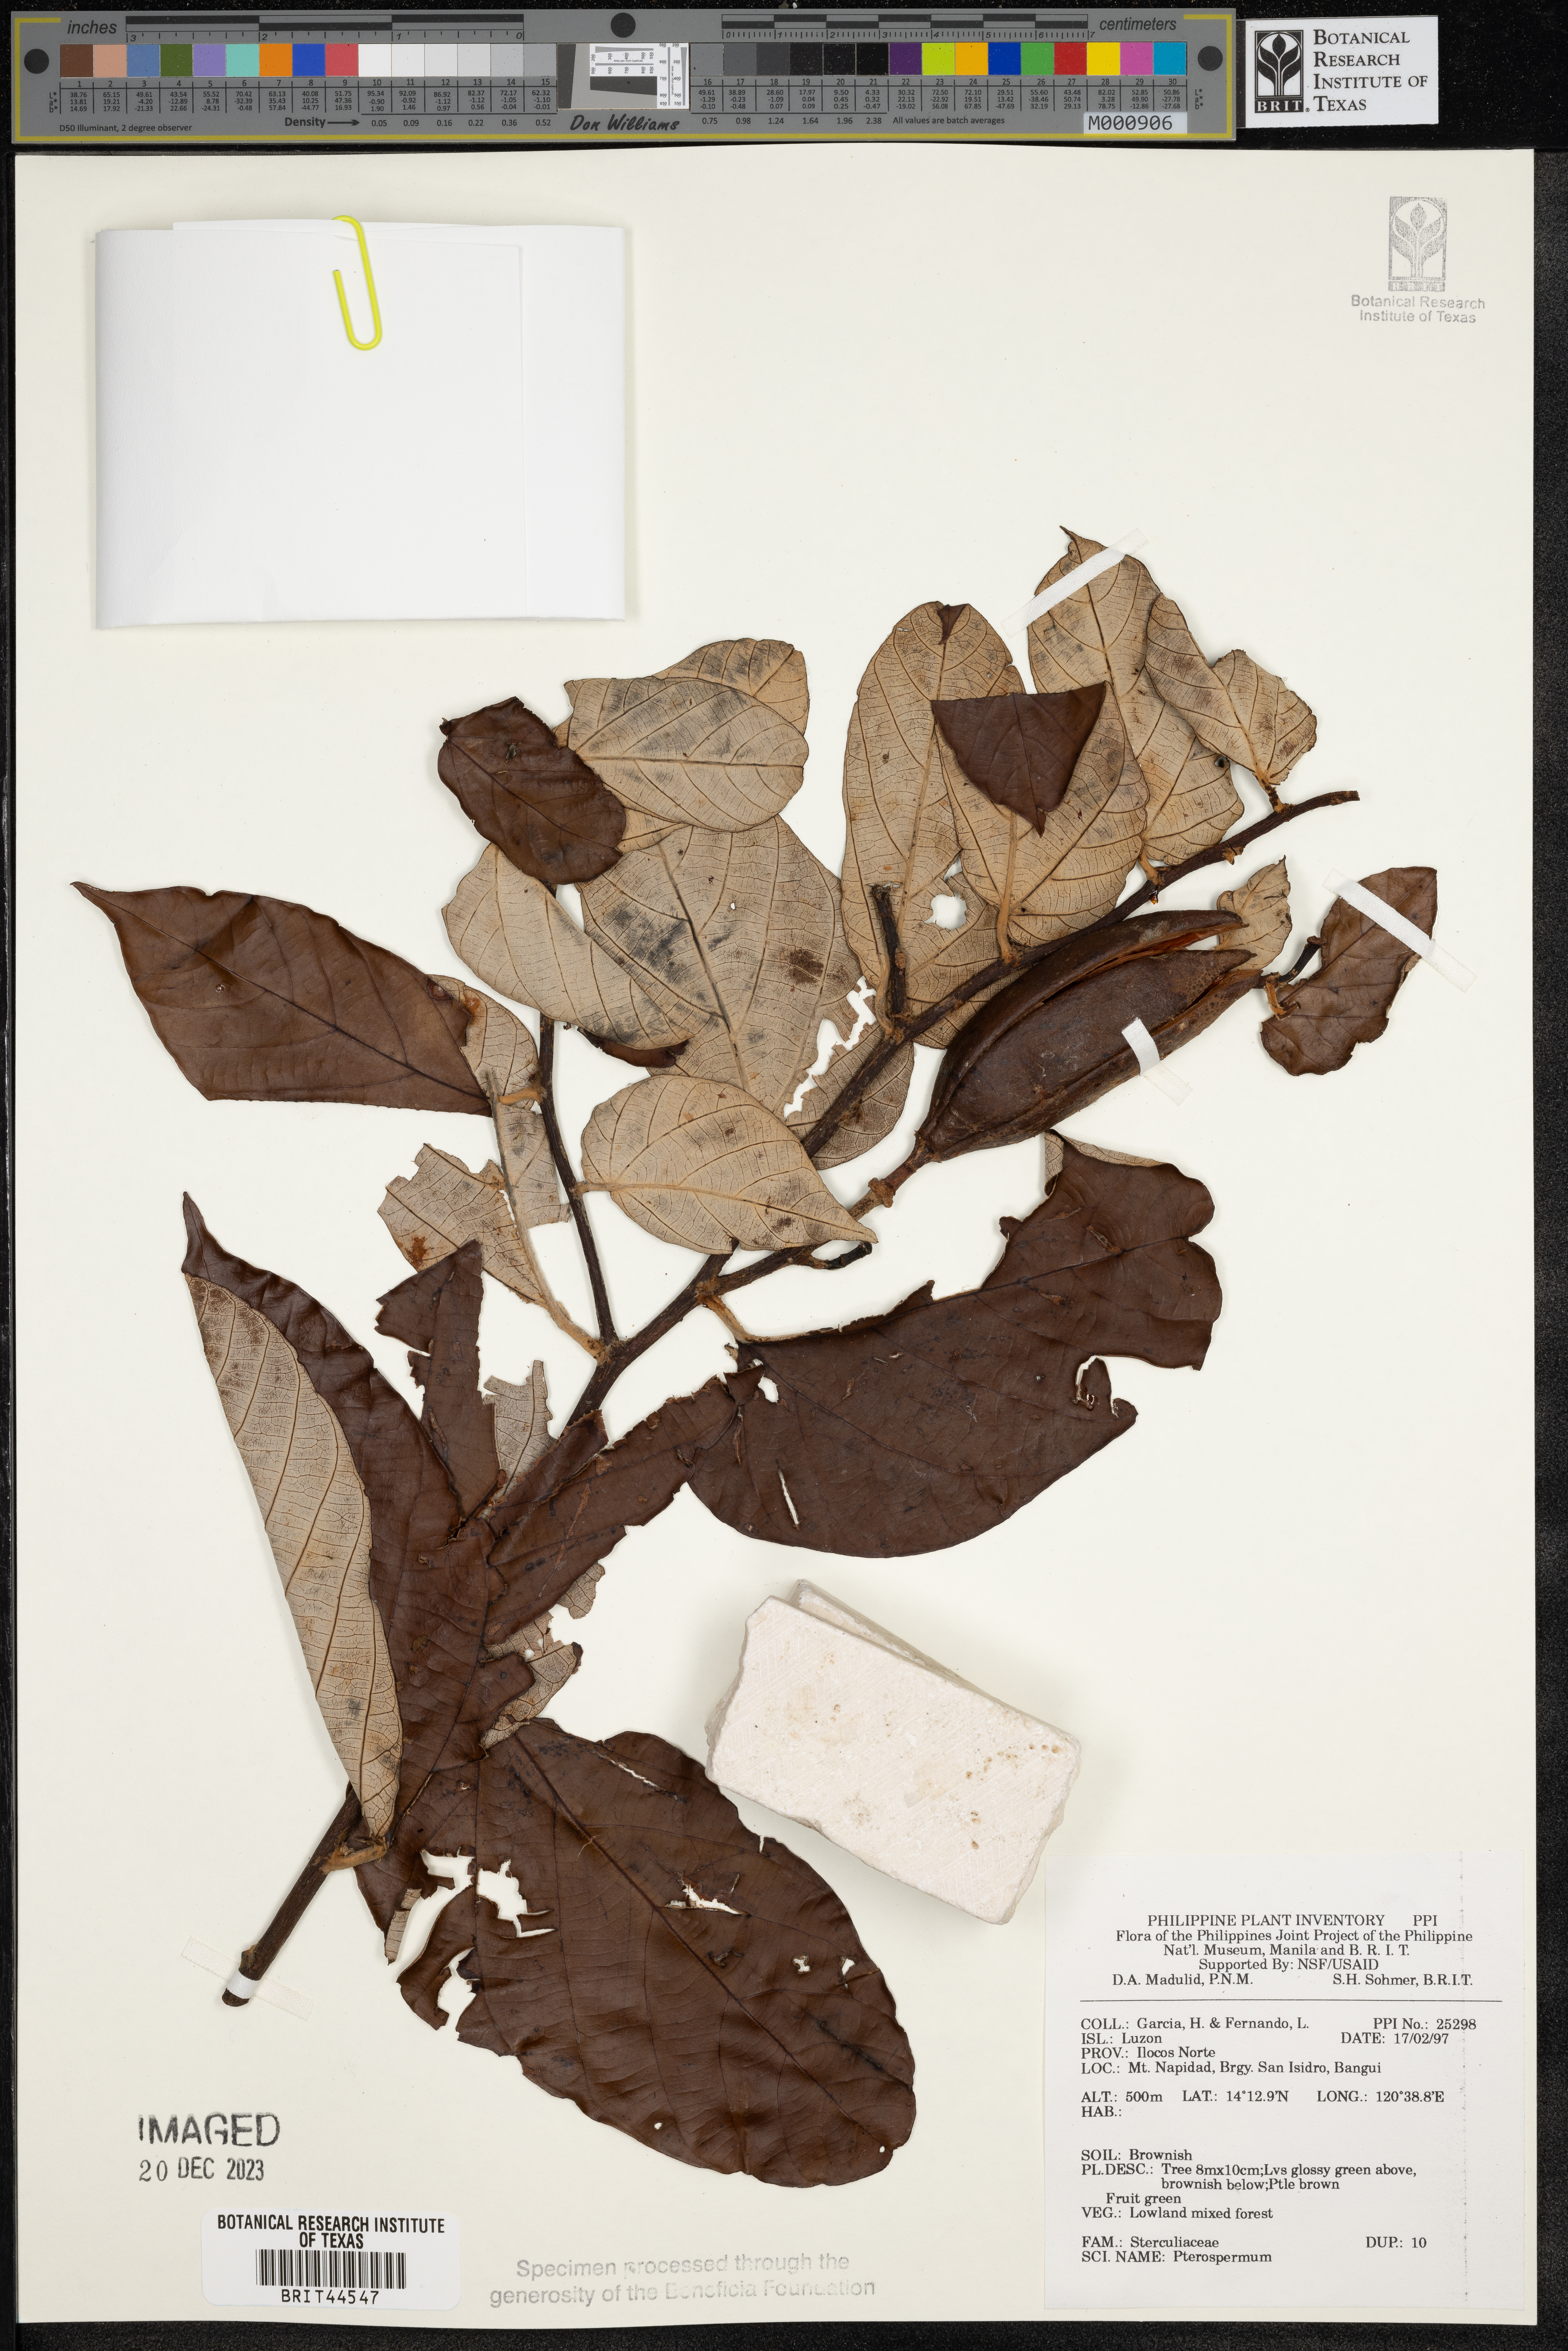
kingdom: Plantae
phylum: Tracheophyta
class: Magnoliopsida
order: Malvales
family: Malvaceae
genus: Pterospermum
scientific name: Pterospermum
